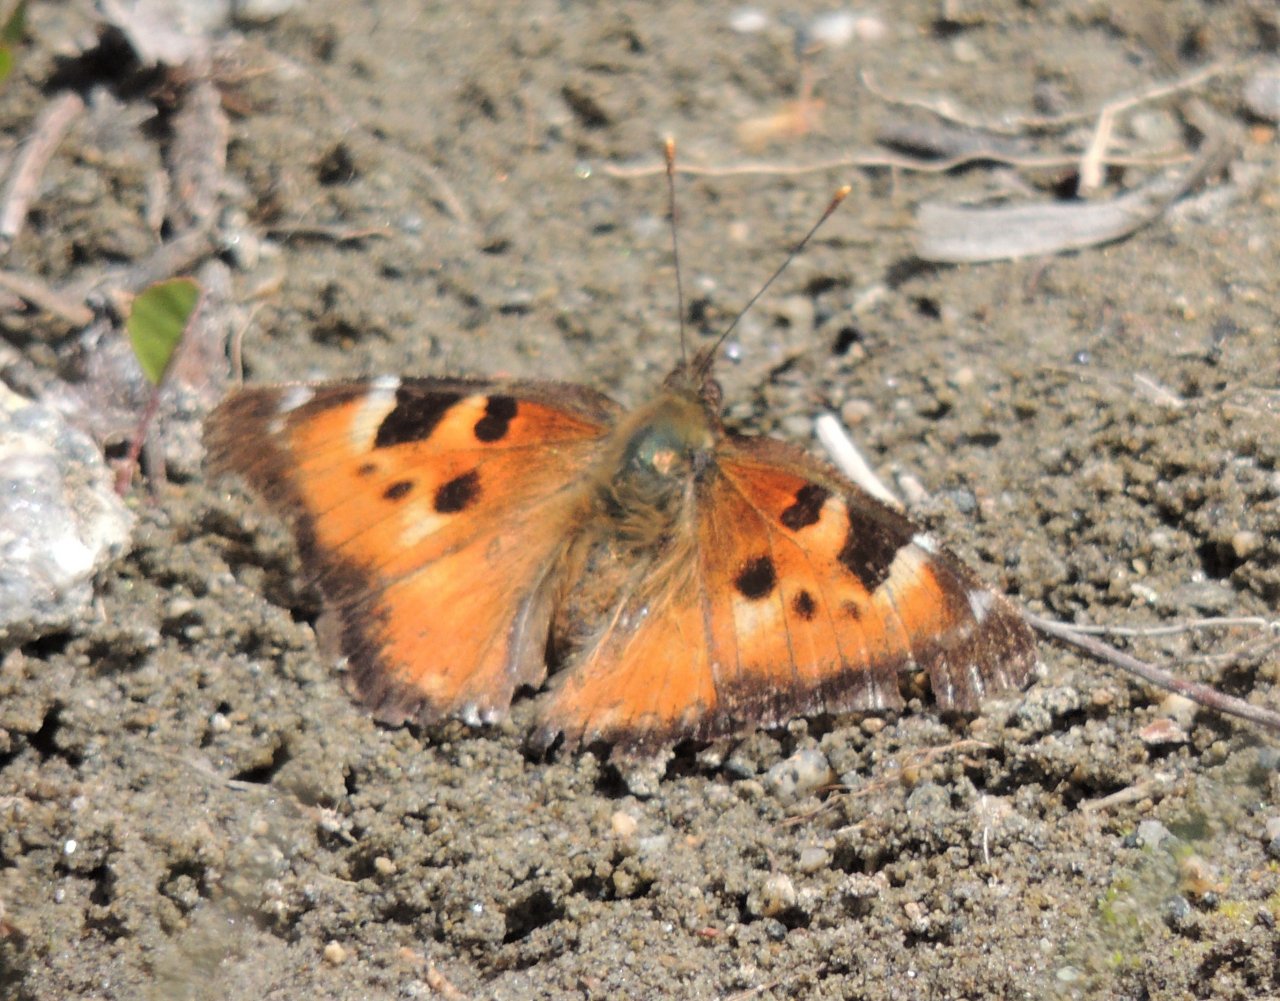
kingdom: Animalia
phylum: Arthropoda
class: Insecta
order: Lepidoptera
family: Nymphalidae
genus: Nymphalis
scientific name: Nymphalis californica
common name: California Tortoiseshell
